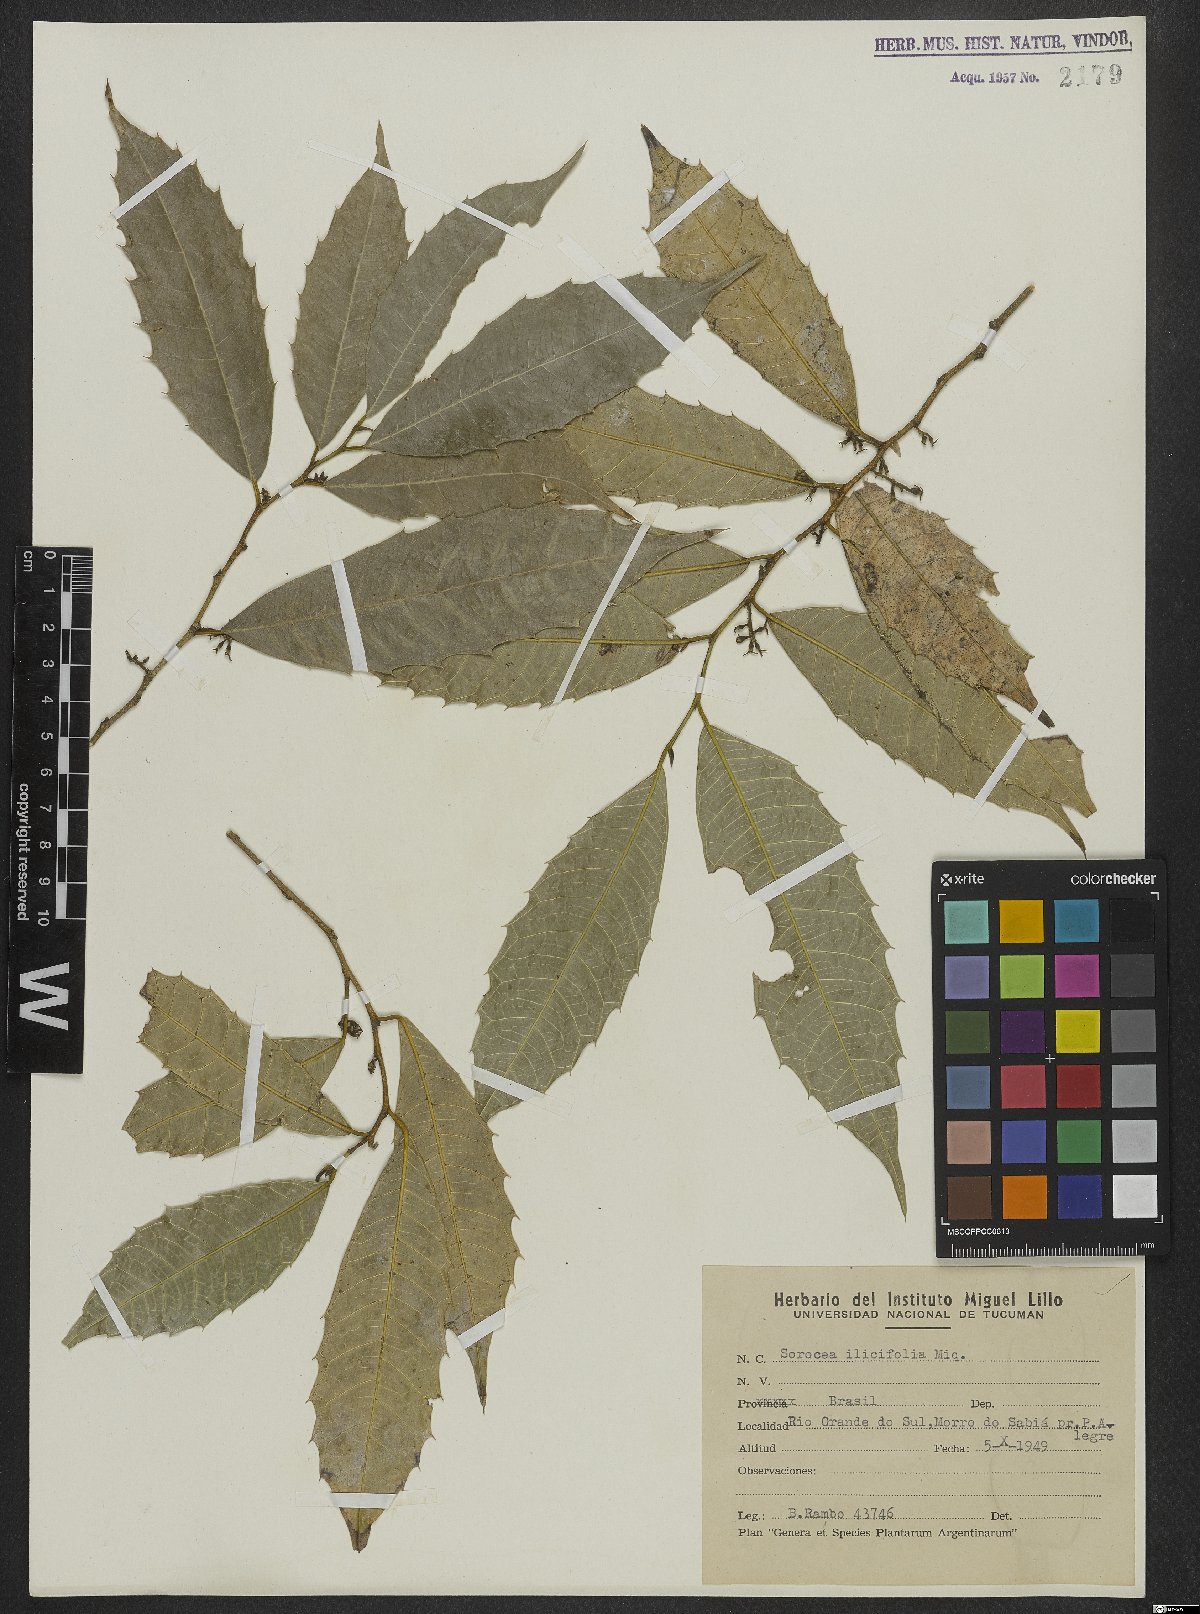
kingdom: Plantae
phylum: Tracheophyta
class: Magnoliopsida
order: Rosales
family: Moraceae
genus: Sorocea
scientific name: Sorocea
